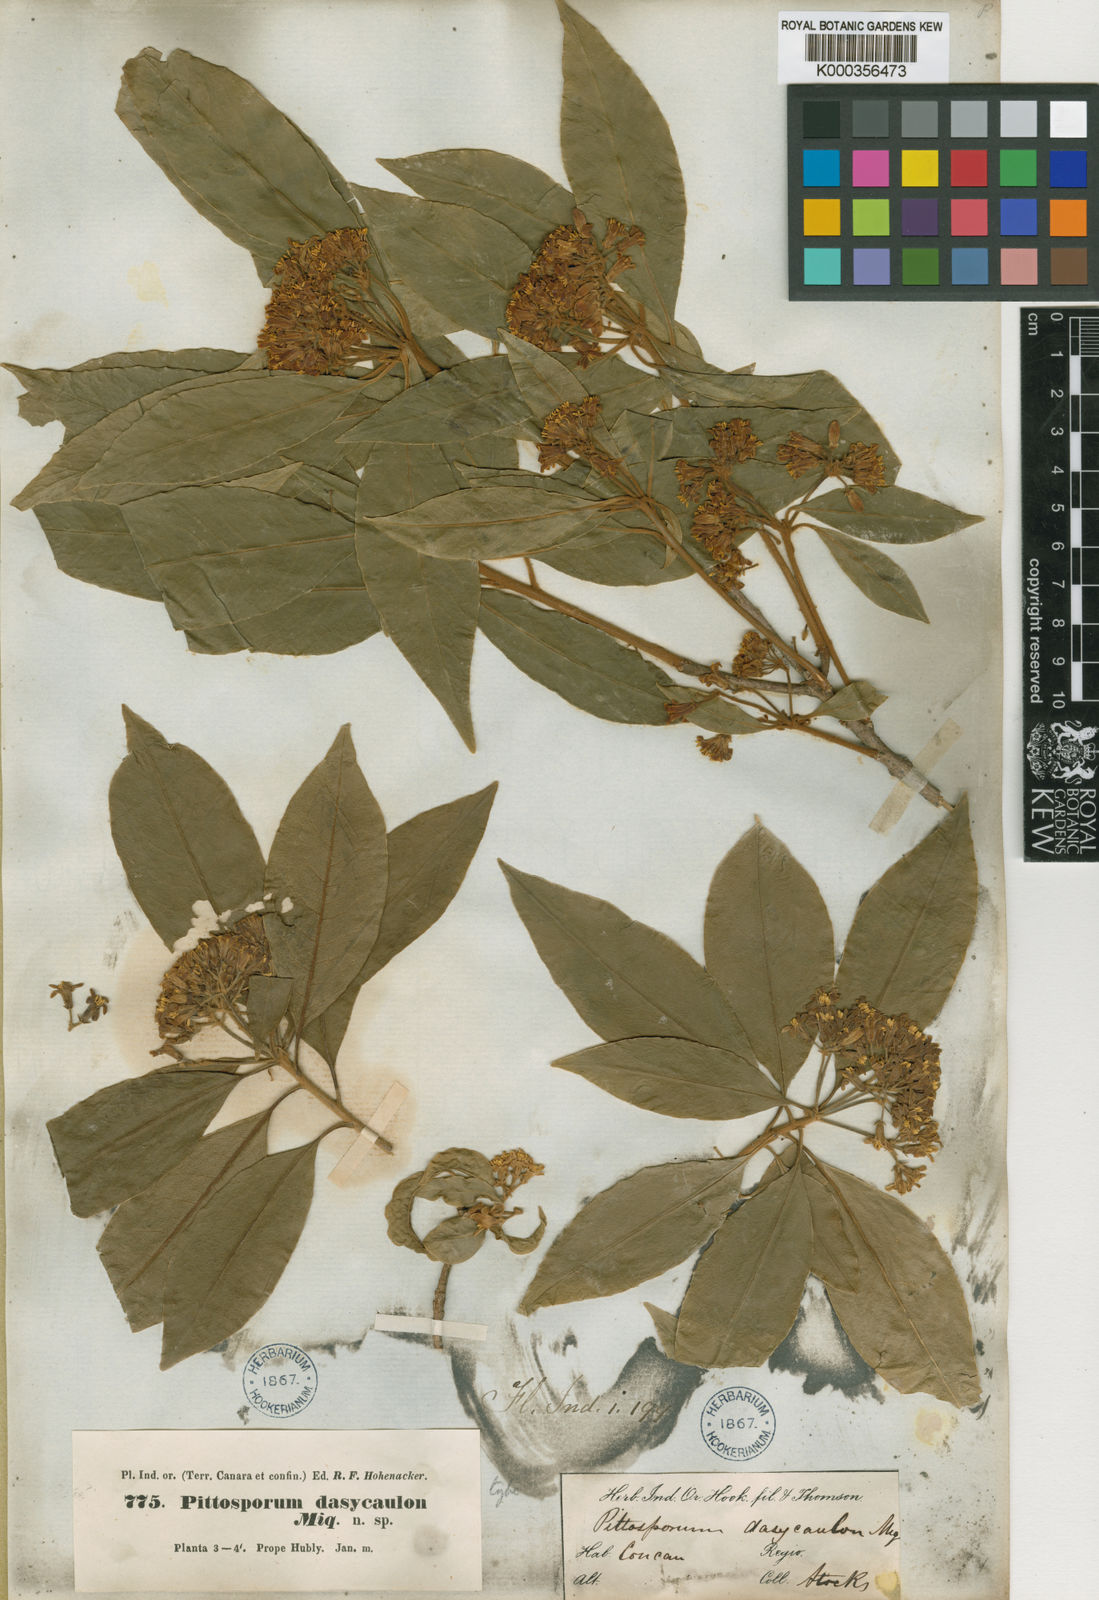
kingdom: Plantae
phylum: Tracheophyta
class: Magnoliopsida
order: Apiales
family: Pittosporaceae
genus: Pittosporum
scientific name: Pittosporum dasycaulon
